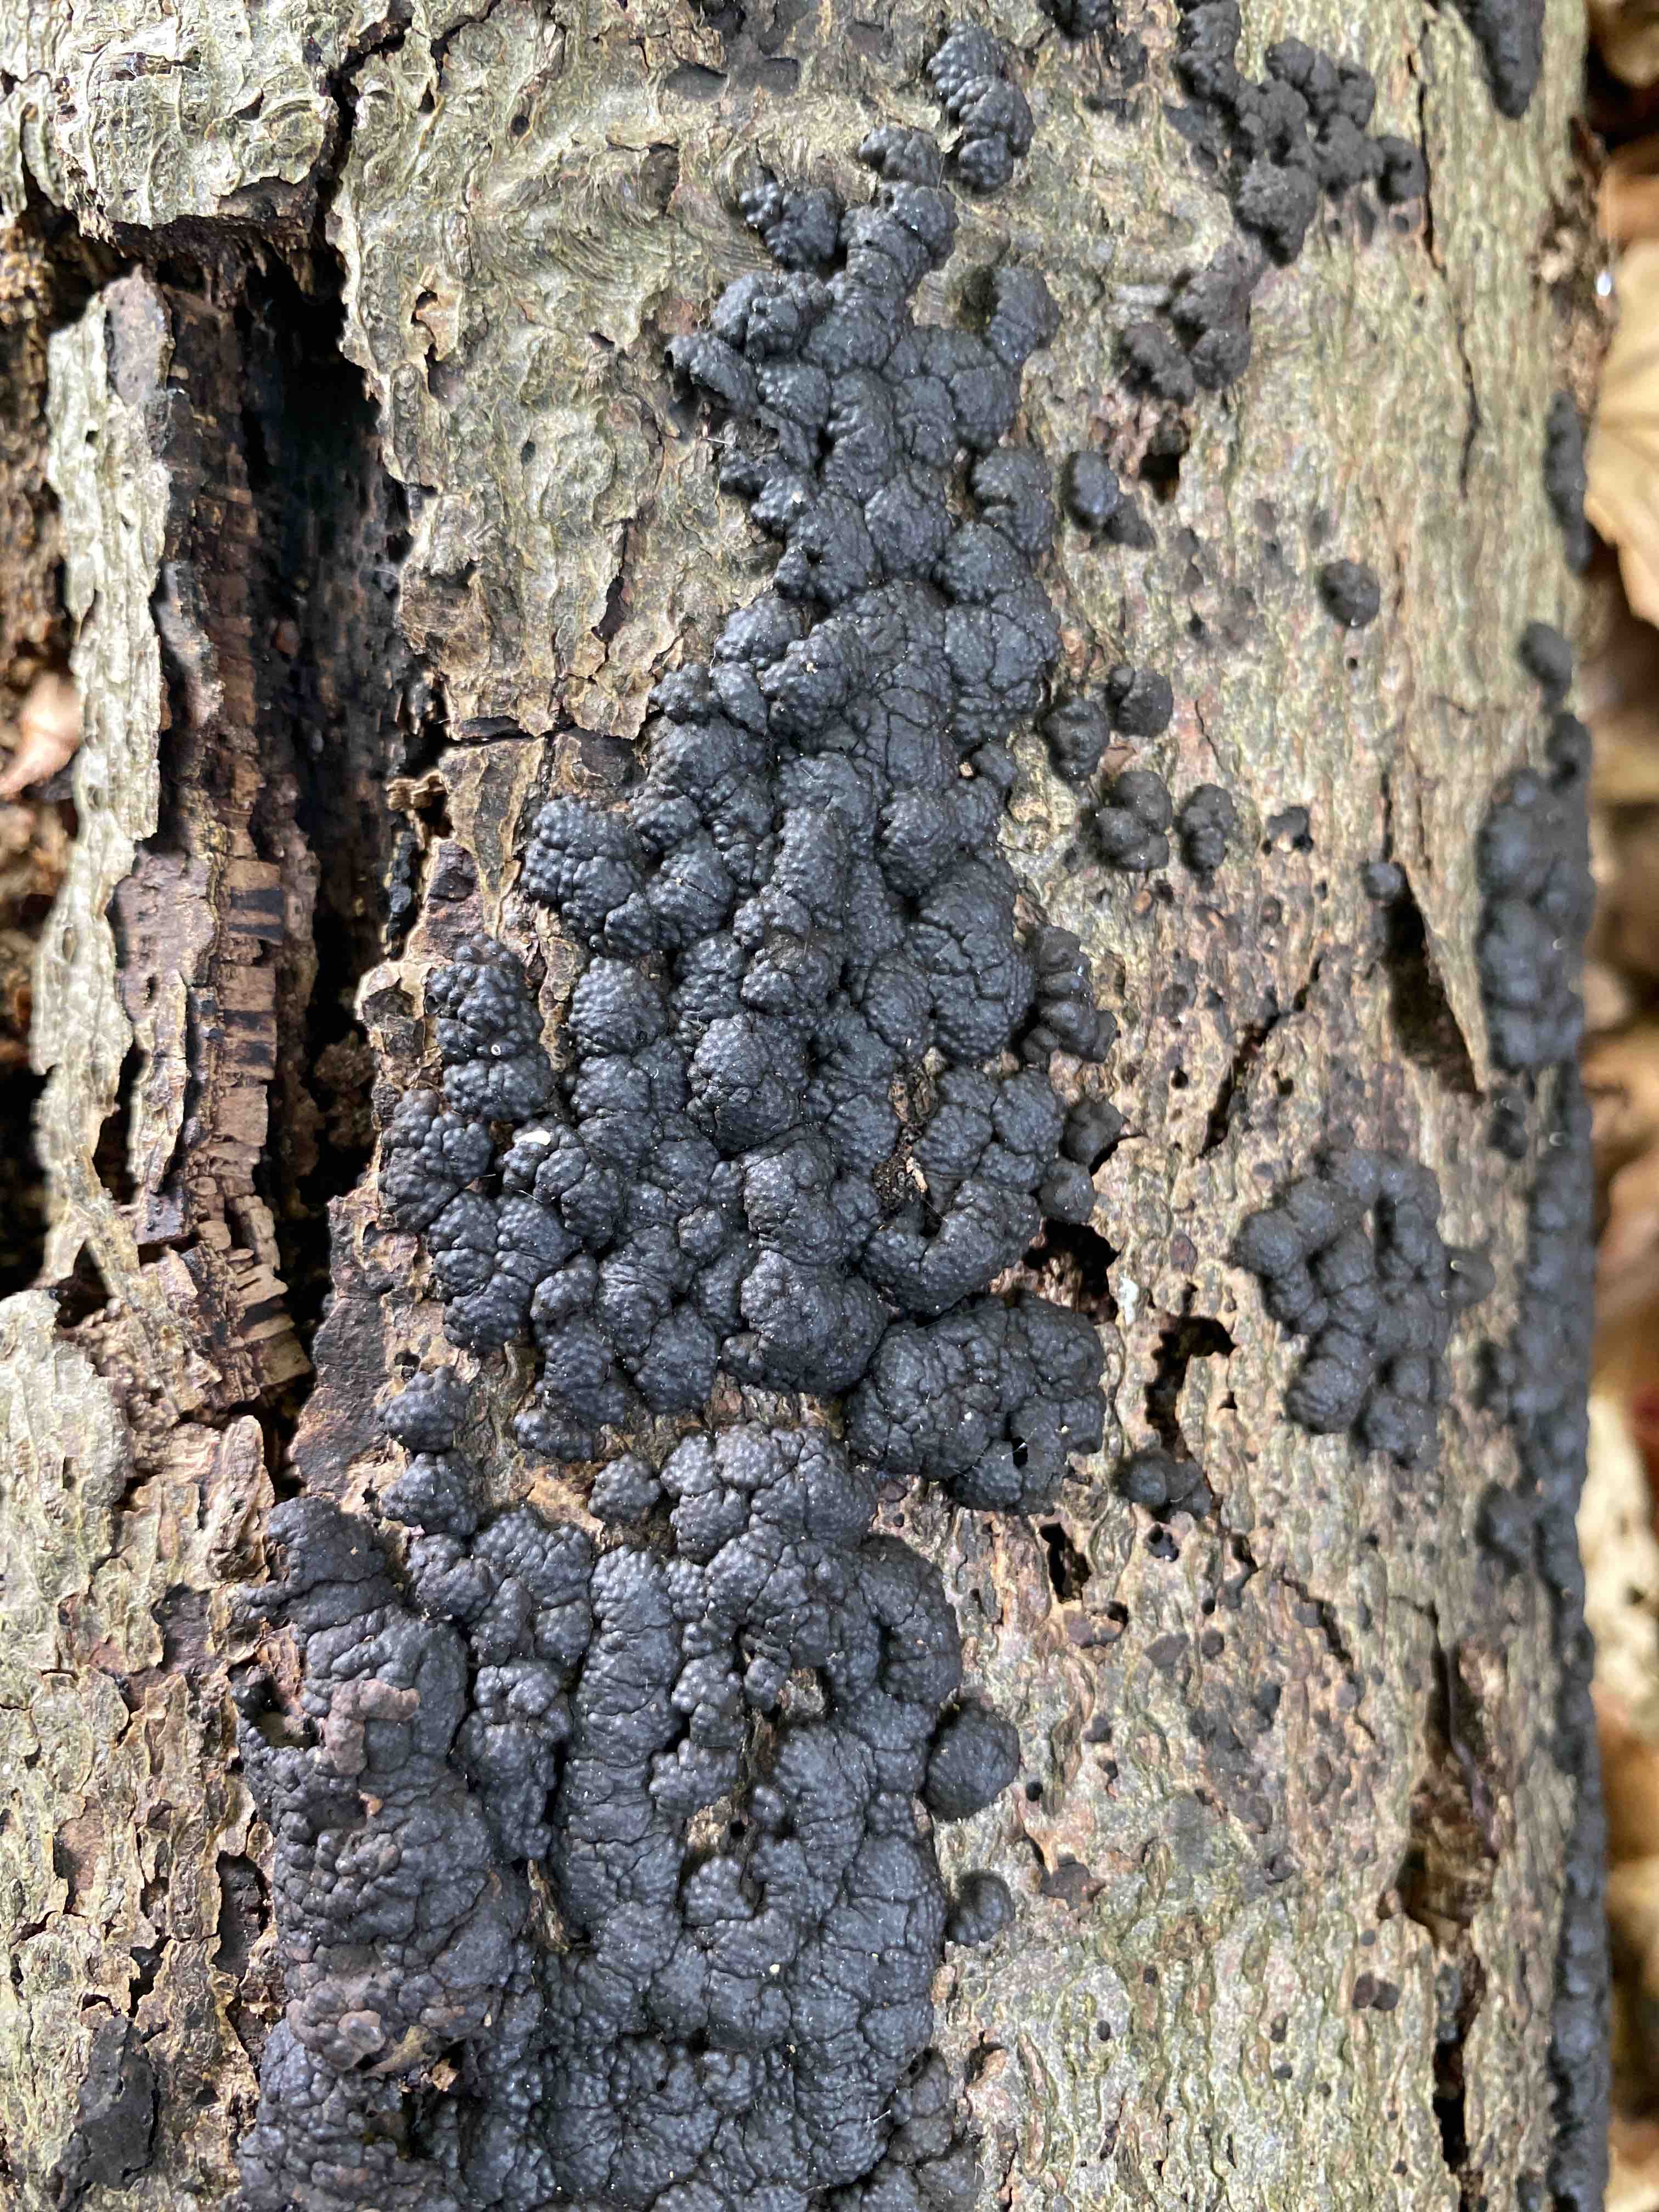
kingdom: Fungi
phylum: Ascomycota
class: Sordariomycetes
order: Xylariales
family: Hypoxylaceae
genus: Jackrogersella
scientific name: Jackrogersella cohaerens
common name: sammenflydende kulbær
